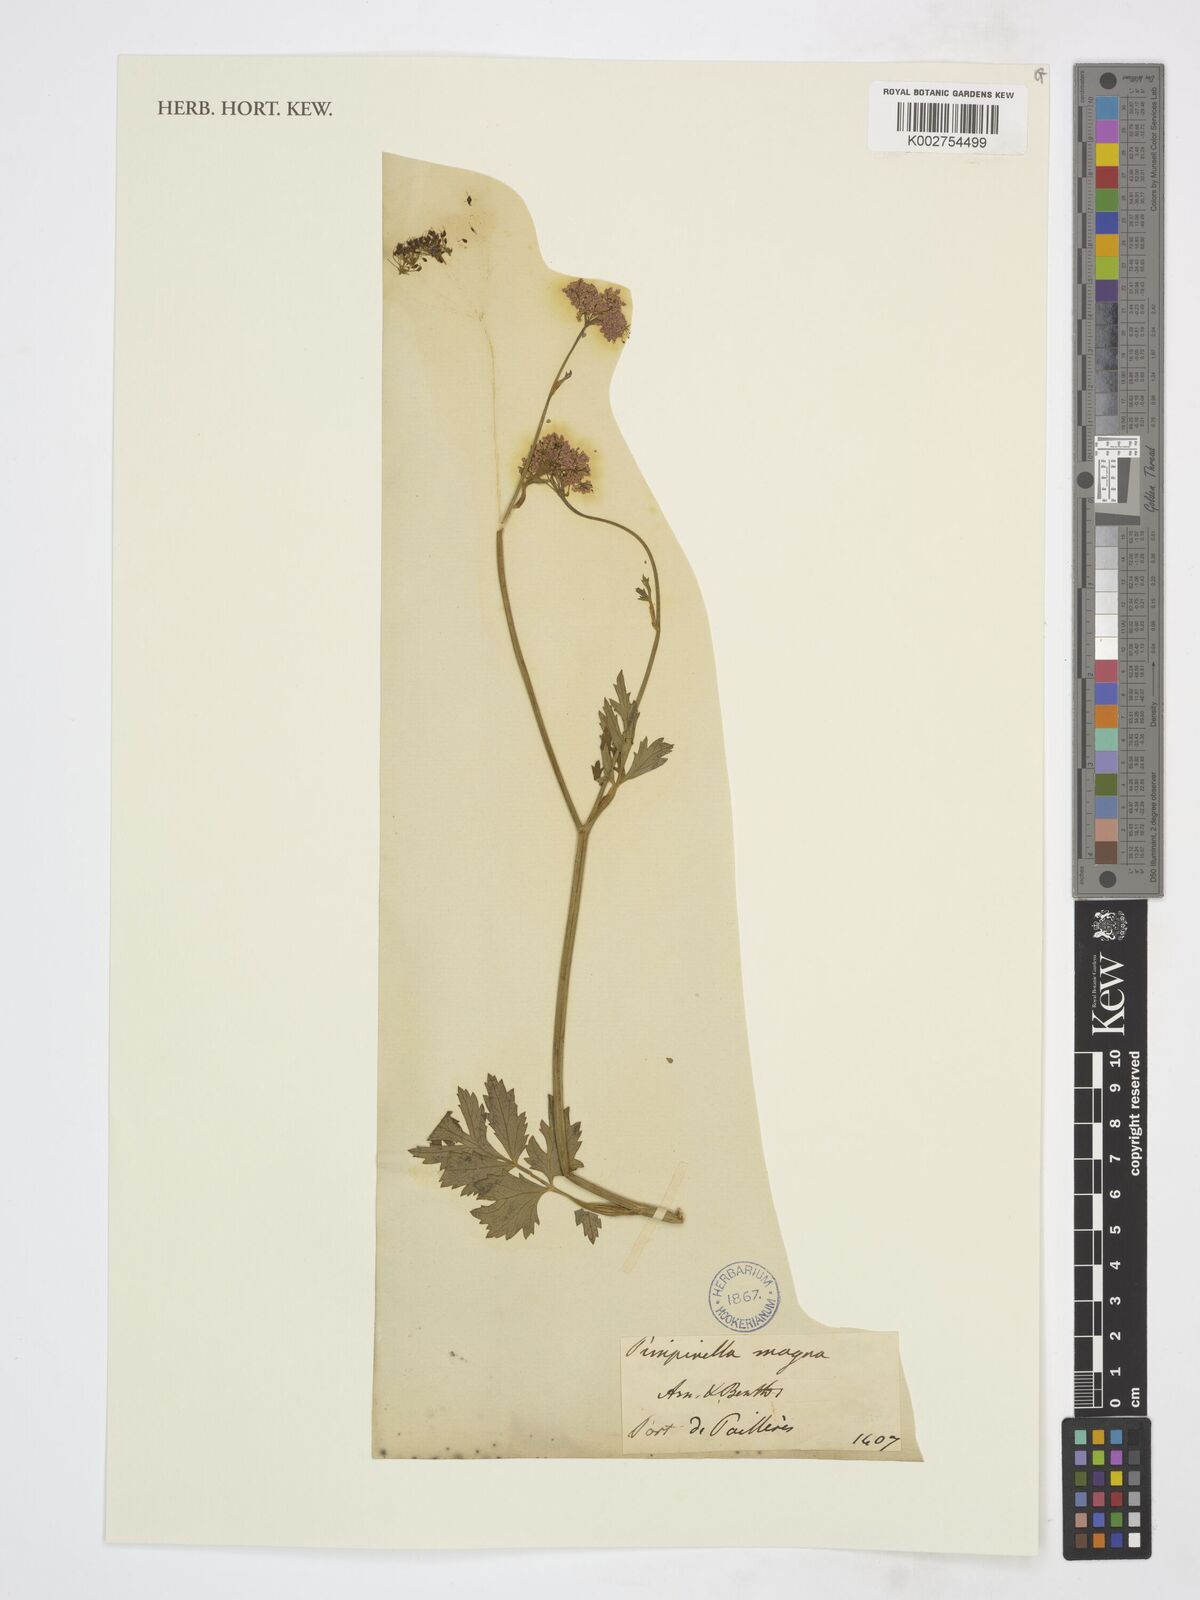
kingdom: Plantae
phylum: Tracheophyta
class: Magnoliopsida
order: Apiales
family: Apiaceae
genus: Pimpinella
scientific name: Pimpinella major
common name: Greater burnet-saxifrage
